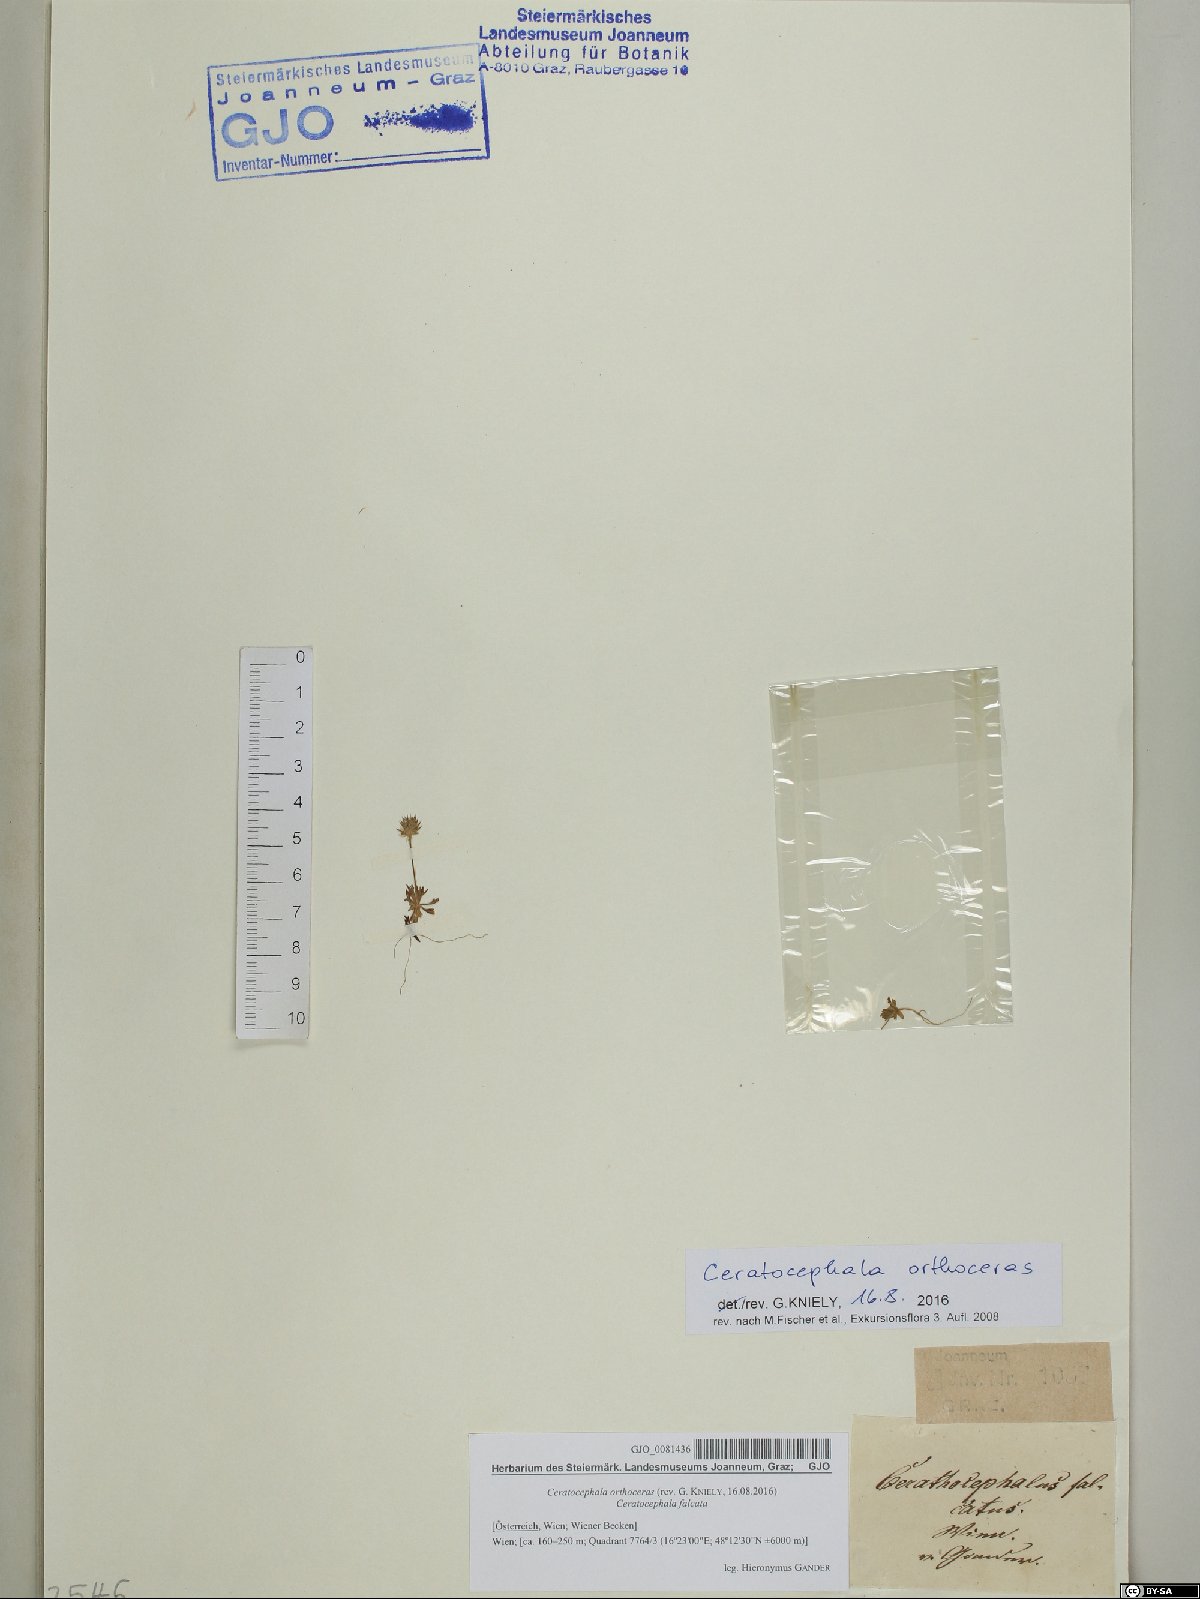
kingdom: Plantae
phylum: Tracheophyta
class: Magnoliopsida
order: Ranunculales
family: Ranunculaceae
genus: Ceratocephala
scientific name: Ceratocephala orthoceras
